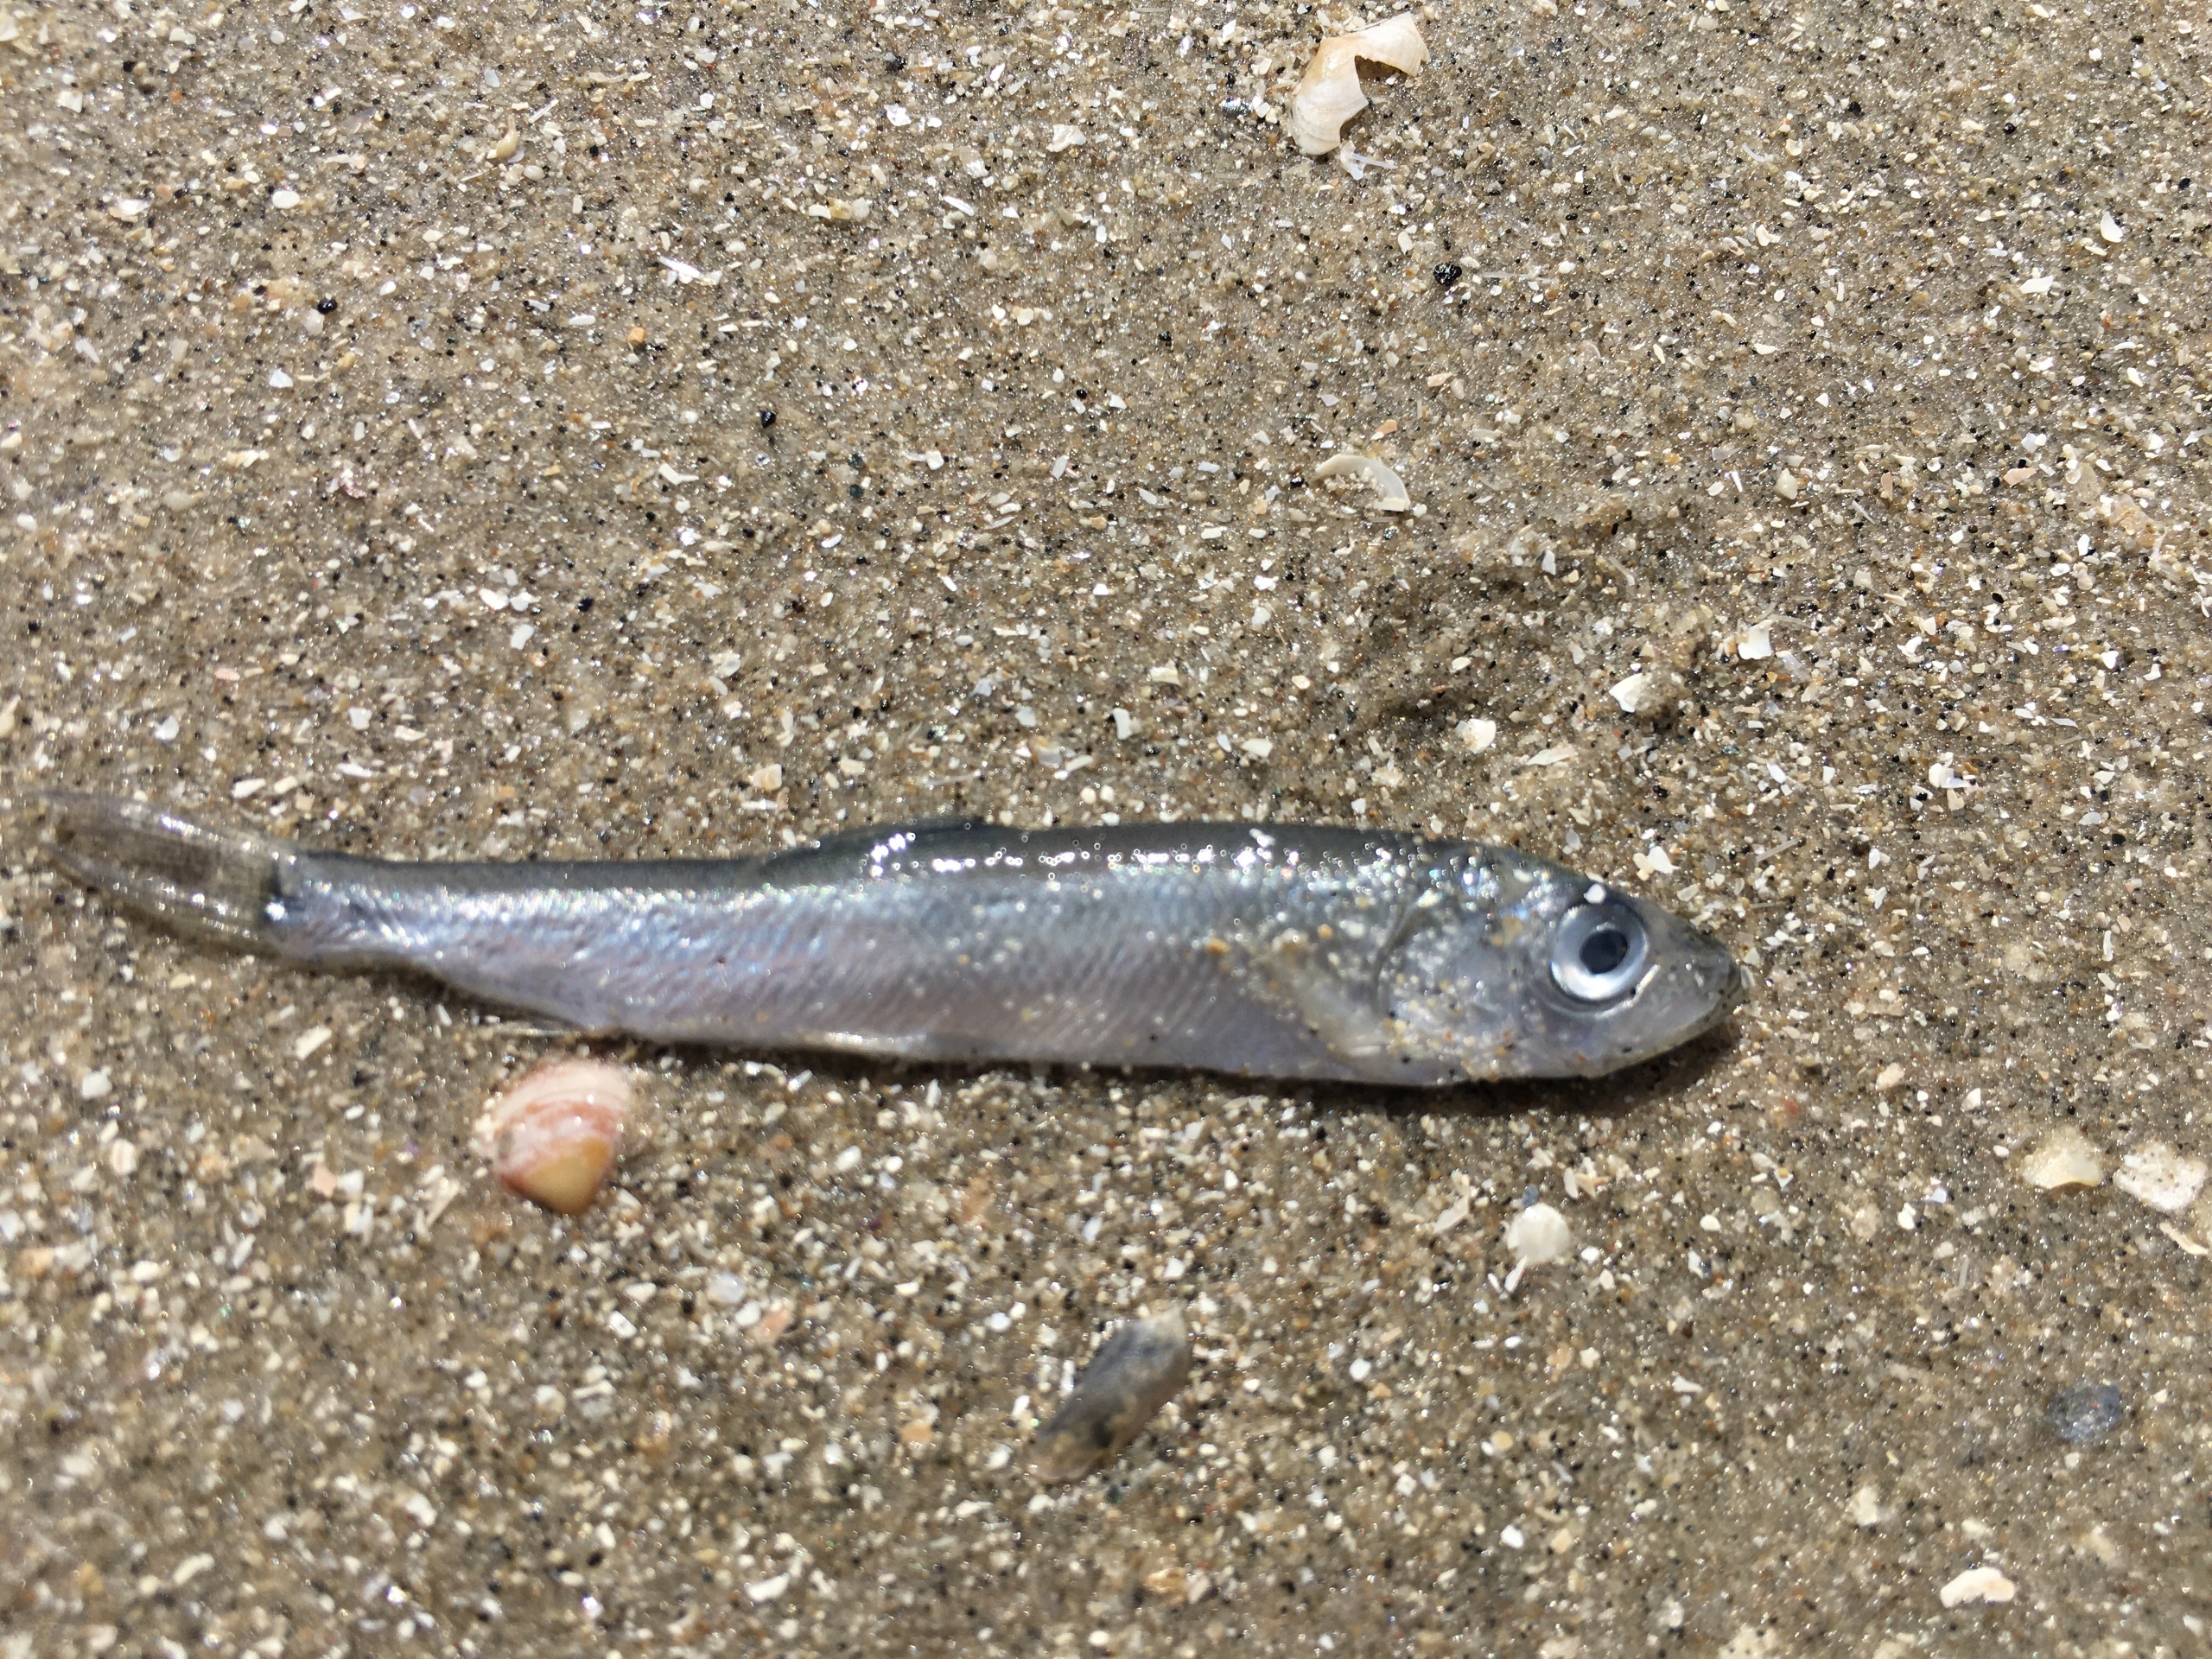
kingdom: Animalia
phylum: Chordata
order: Clupeiformes
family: Clupeidae
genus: Clupea
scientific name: Clupea harengus
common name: Sild
